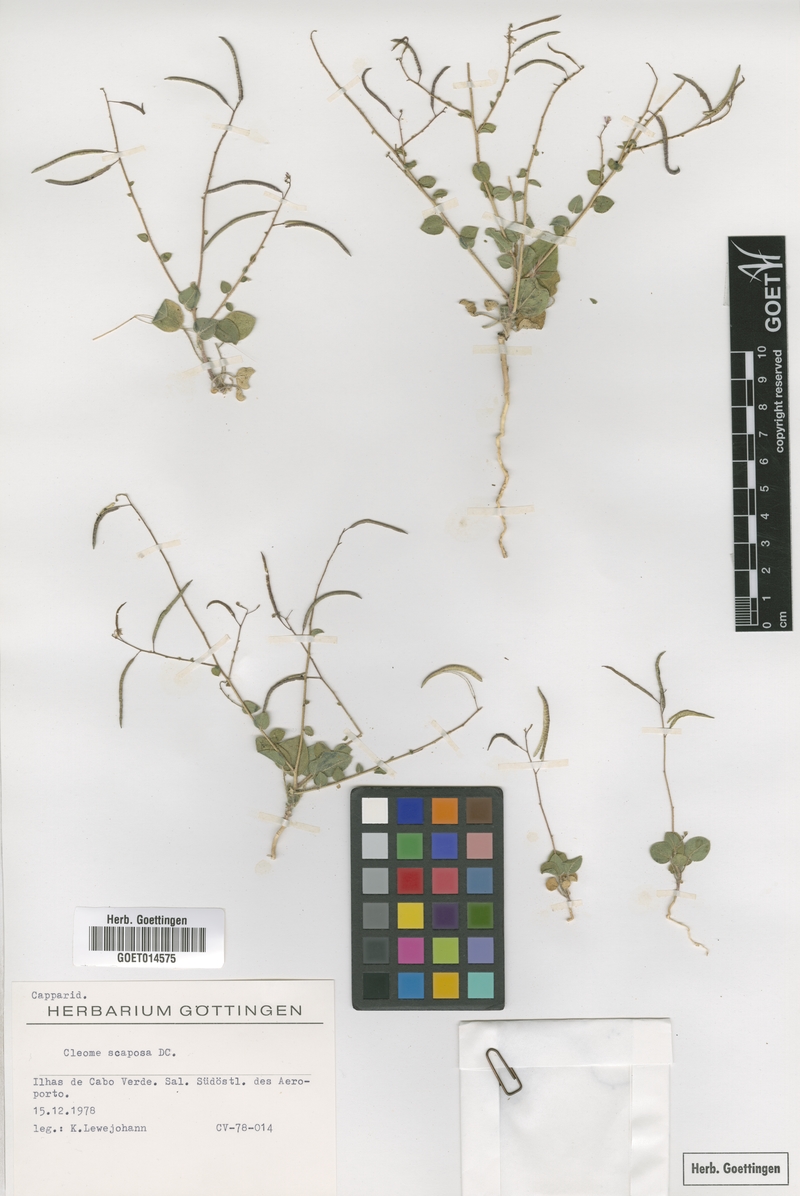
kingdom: Plantae
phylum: Tracheophyta
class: Magnoliopsida
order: Brassicales
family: Cleomaceae
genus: Gilgella
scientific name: Gilgella scaposa
